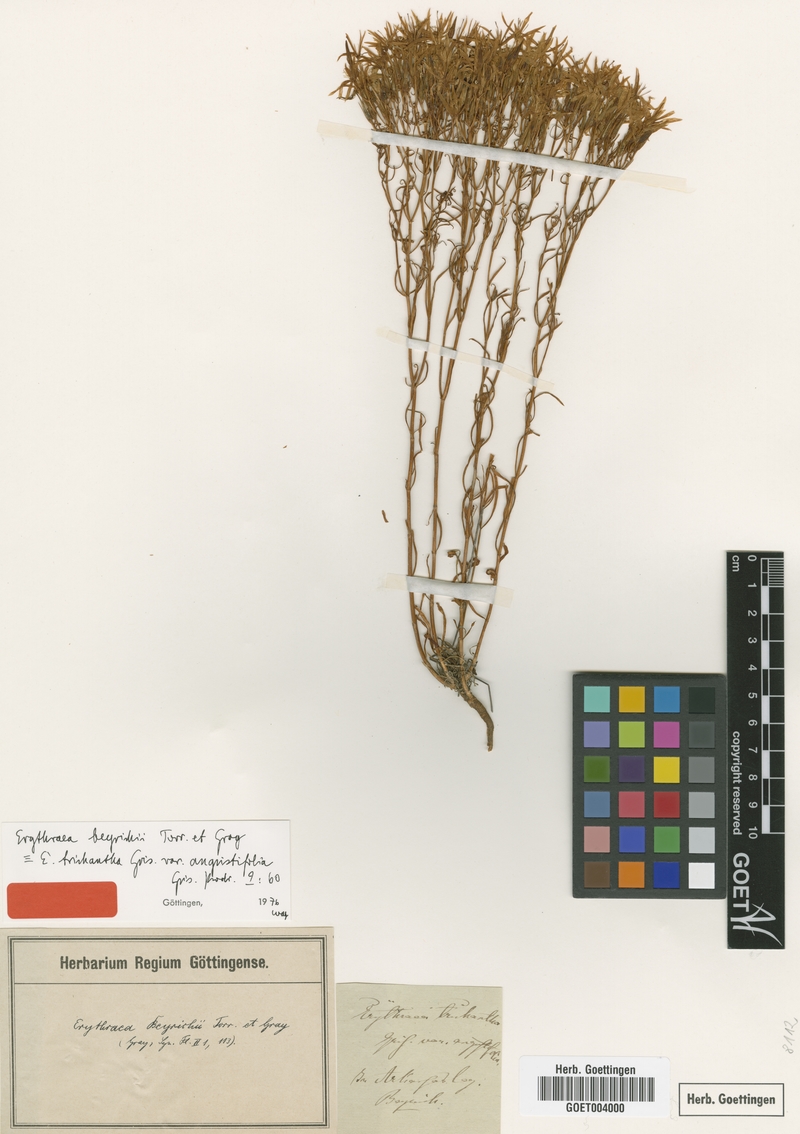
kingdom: Plantae
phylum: Tracheophyta
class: Magnoliopsida
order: Gentianales
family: Gentianaceae
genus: Zeltnera
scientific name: Zeltnera beyrichii
